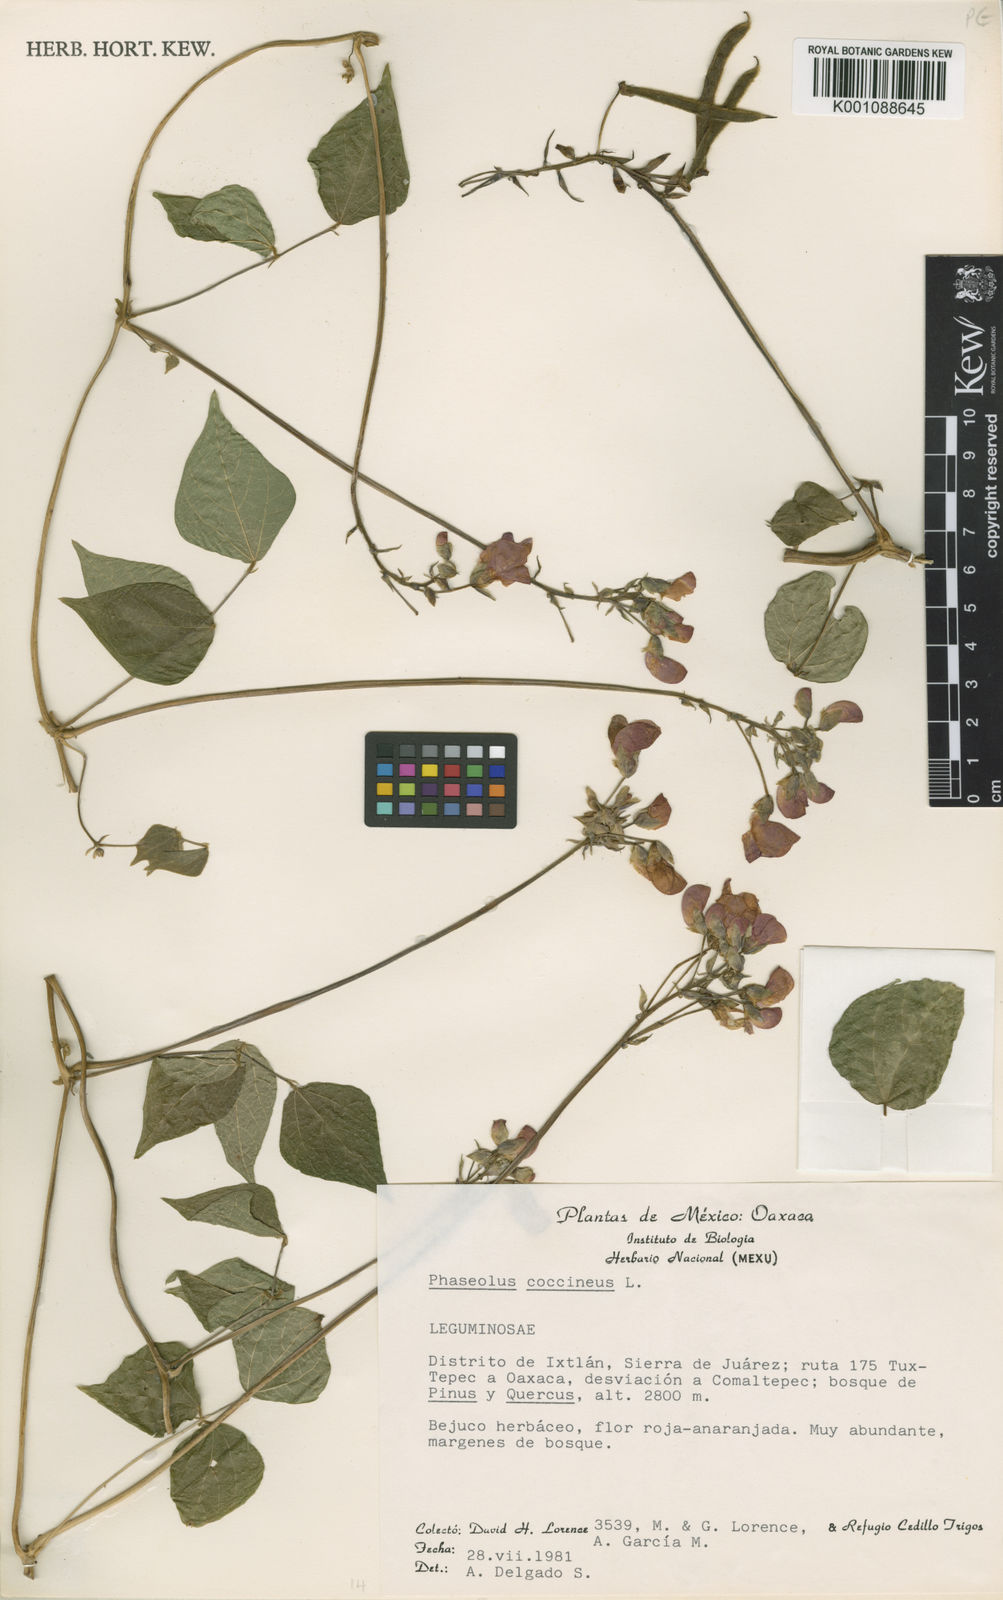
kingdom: Plantae
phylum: Tracheophyta
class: Magnoliopsida
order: Fabales
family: Fabaceae
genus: Phaseolus
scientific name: Phaseolus coccineus
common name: Runner bean
